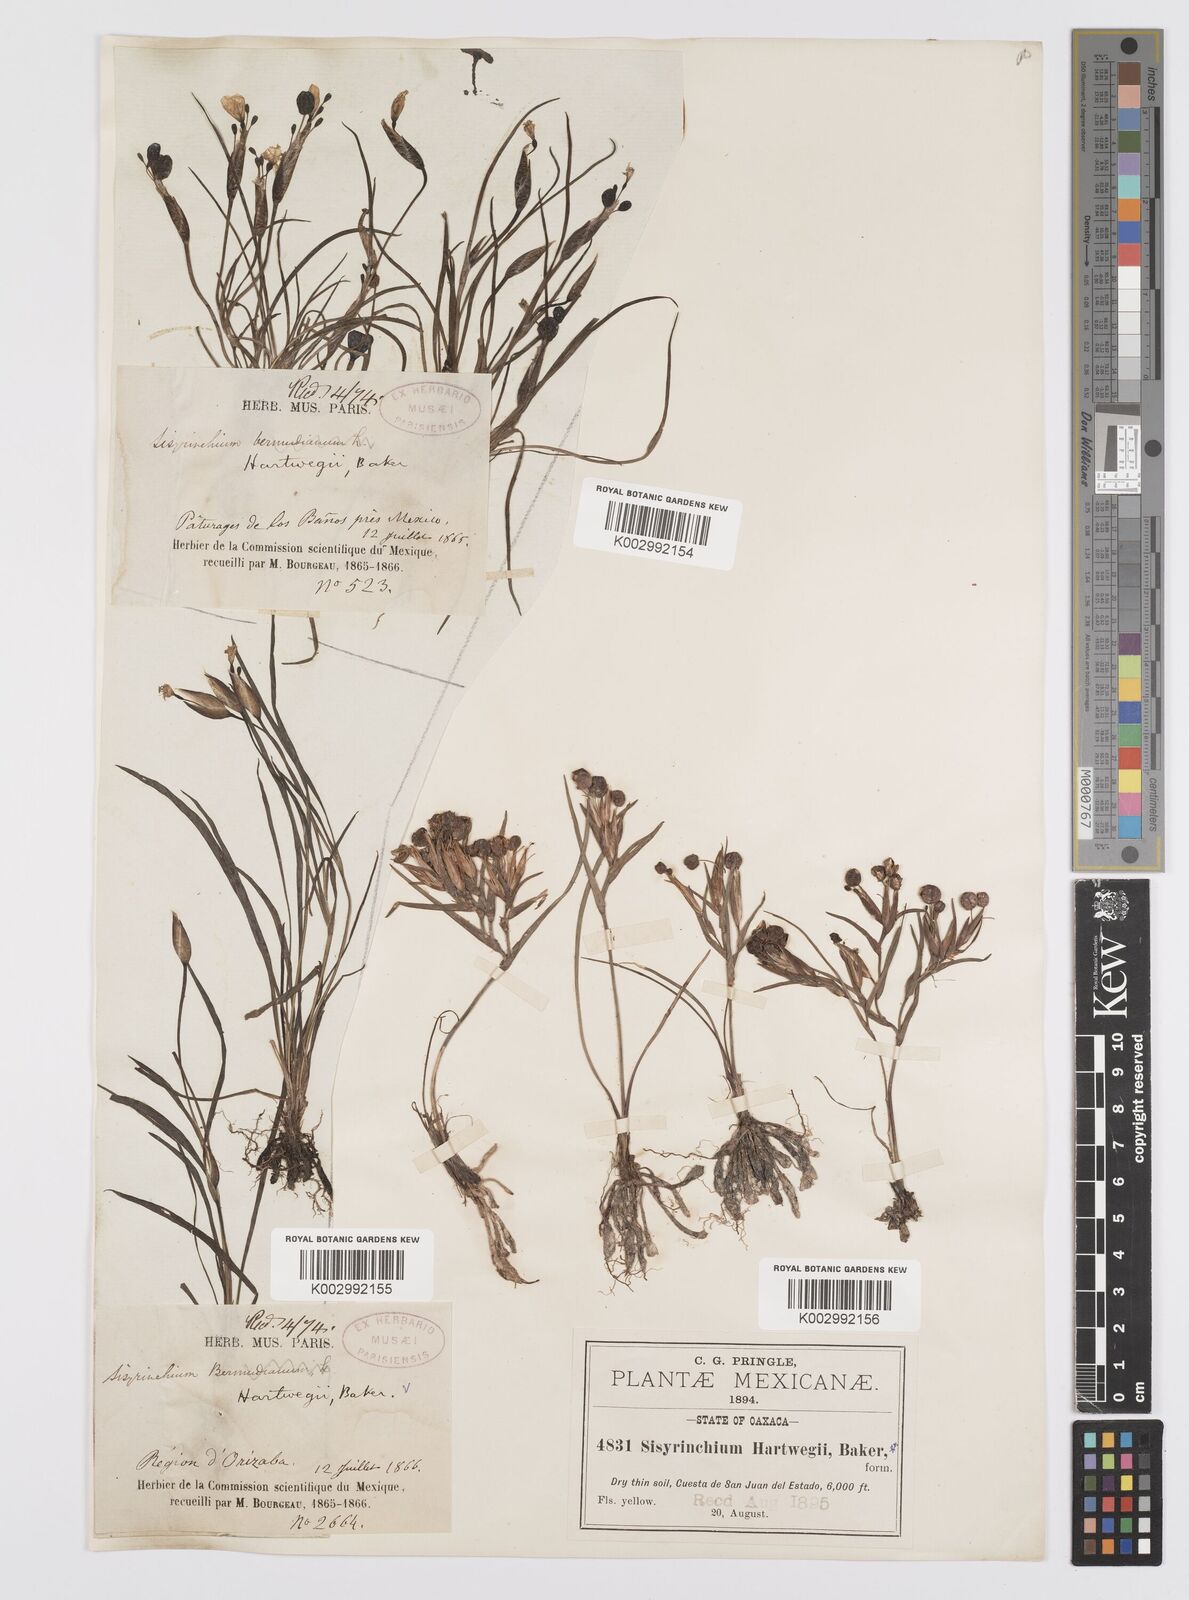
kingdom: Plantae
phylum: Tracheophyta
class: Liliopsida
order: Asparagales
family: Iridaceae
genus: Sisyrinchium
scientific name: Sisyrinchium tenuifolium
